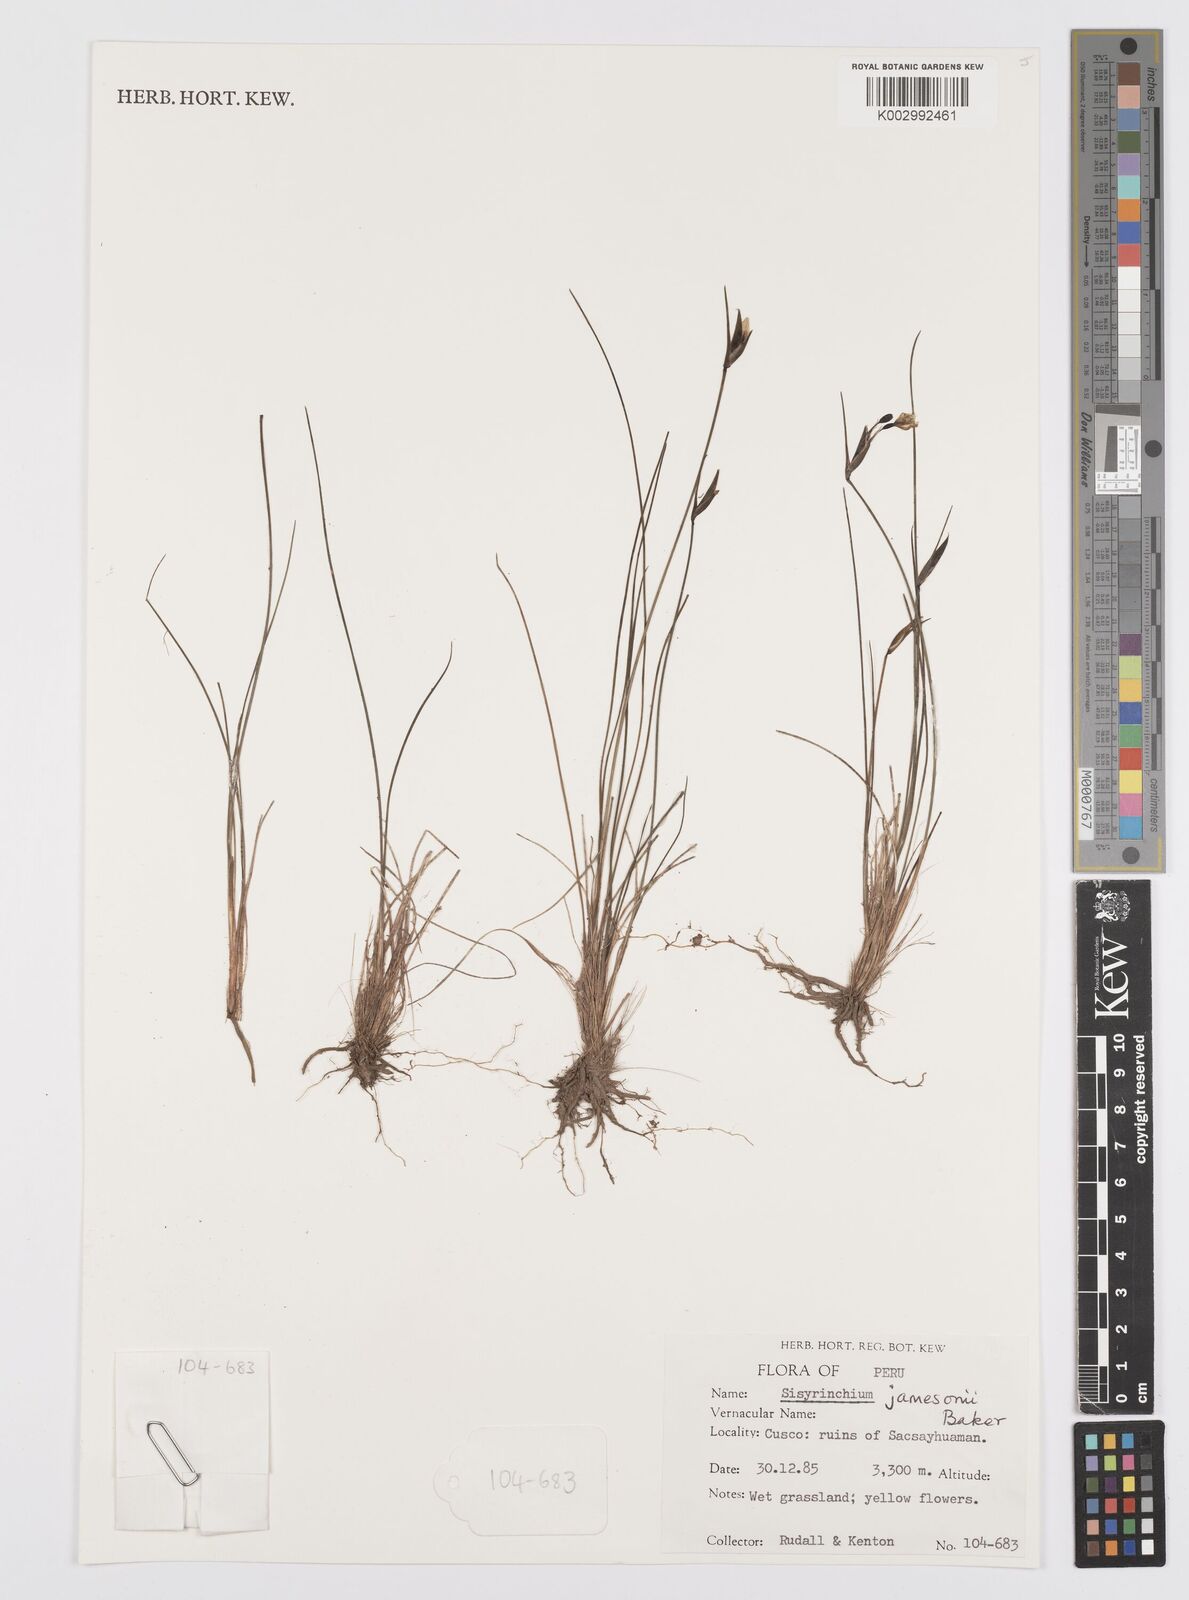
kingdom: Plantae
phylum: Tracheophyta
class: Liliopsida
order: Asparagales
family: Iridaceae
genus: Sisyrinchium
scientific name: Sisyrinchium jamesonii
